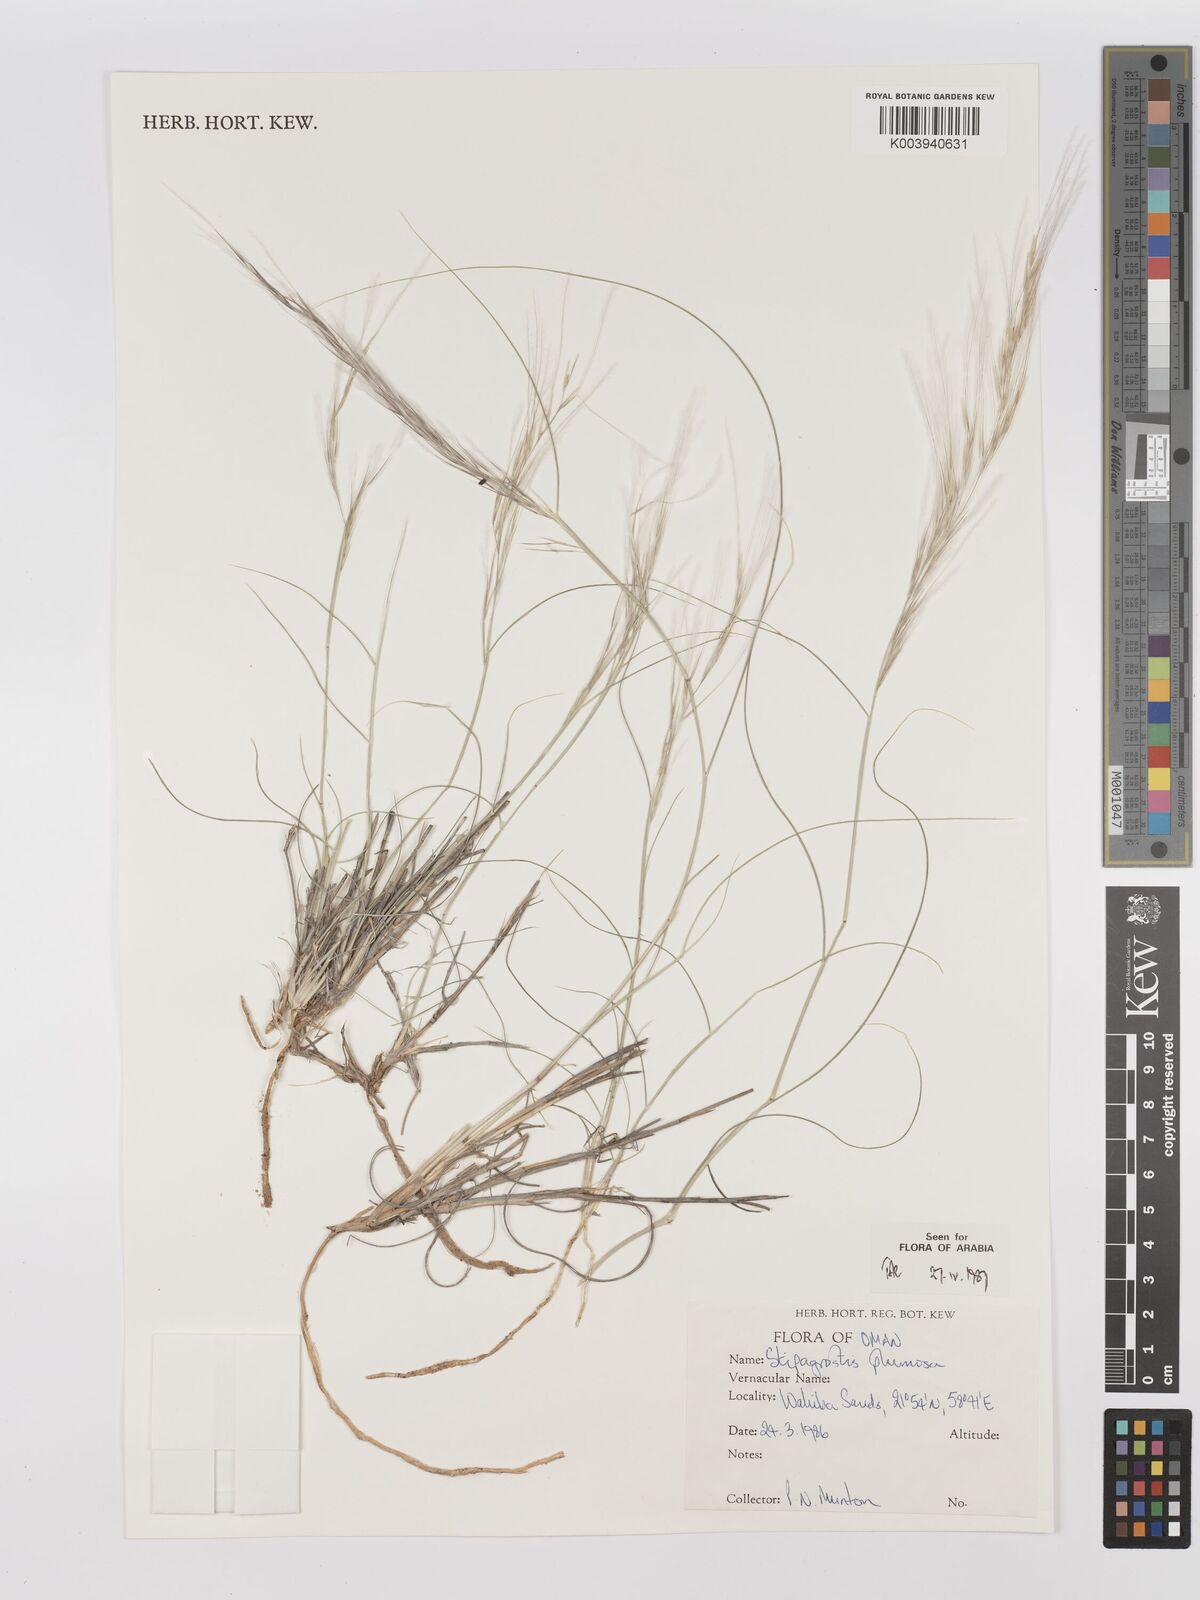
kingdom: Plantae
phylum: Tracheophyta
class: Liliopsida
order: Poales
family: Poaceae
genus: Stipagrostis
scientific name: Stipagrostis plumosa
